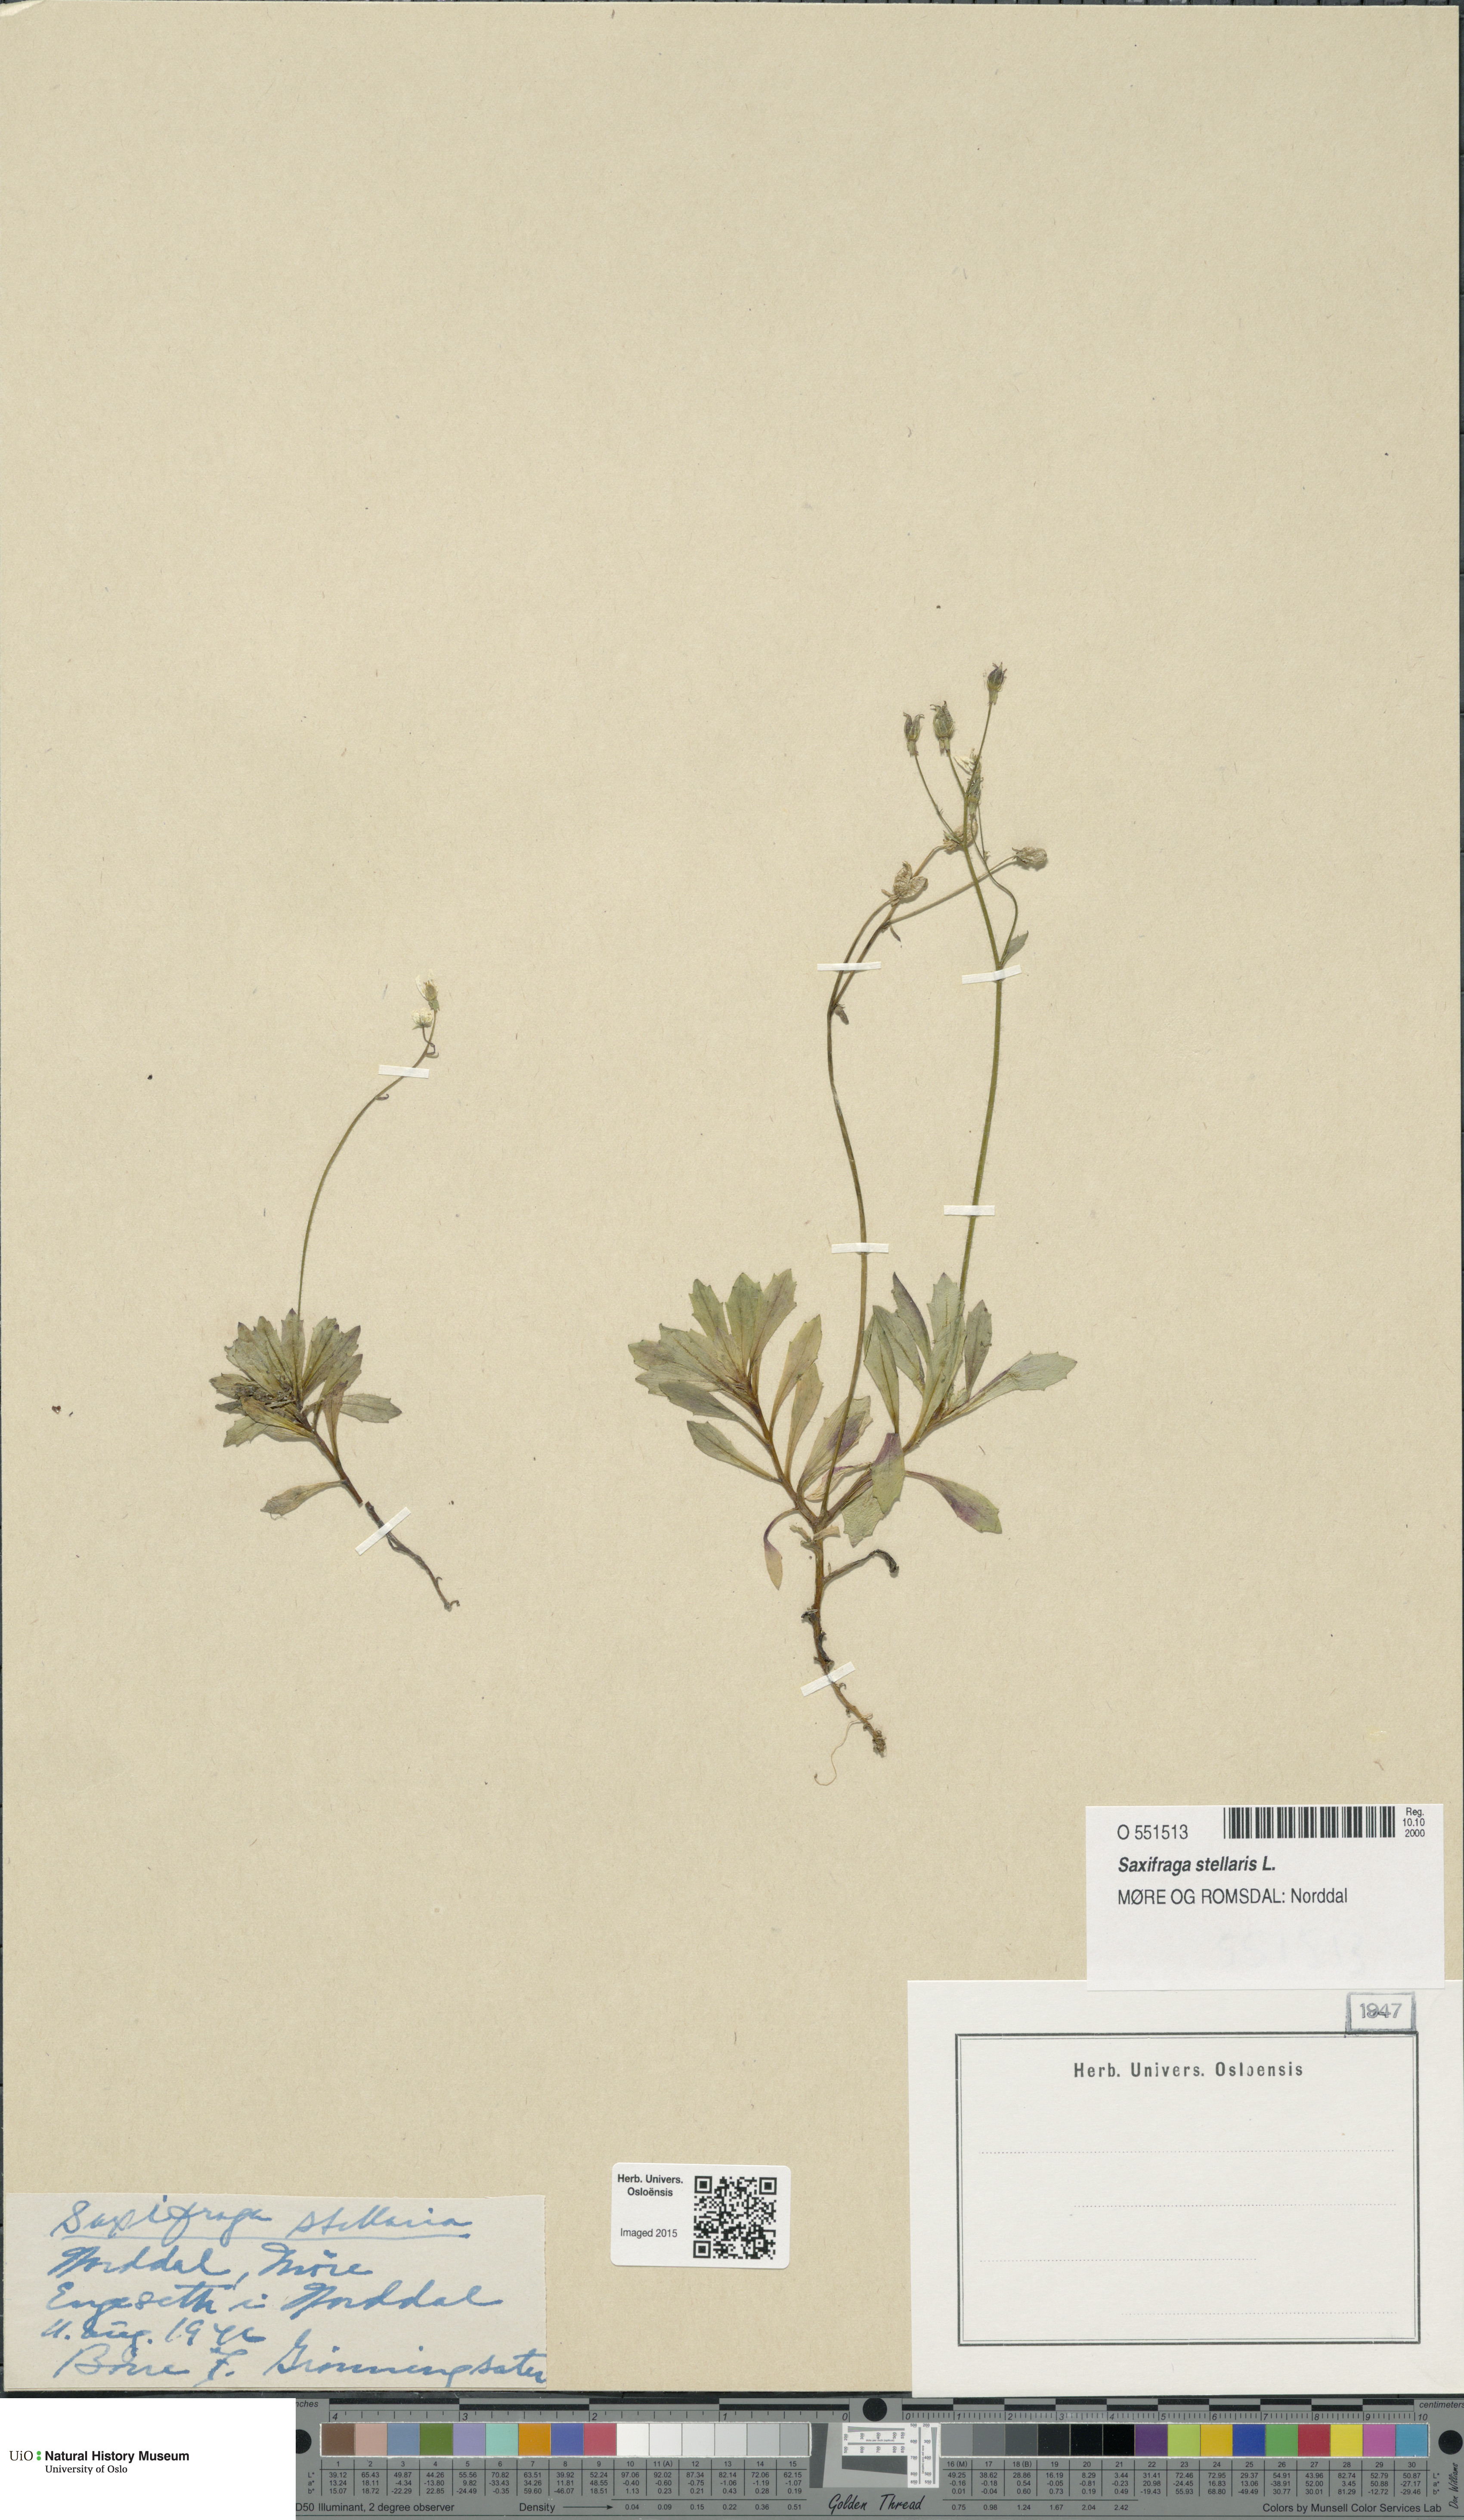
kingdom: Plantae
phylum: Tracheophyta
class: Magnoliopsida
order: Saxifragales
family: Saxifragaceae
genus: Micranthes
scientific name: Micranthes stellaris
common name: Starry saxifrage
